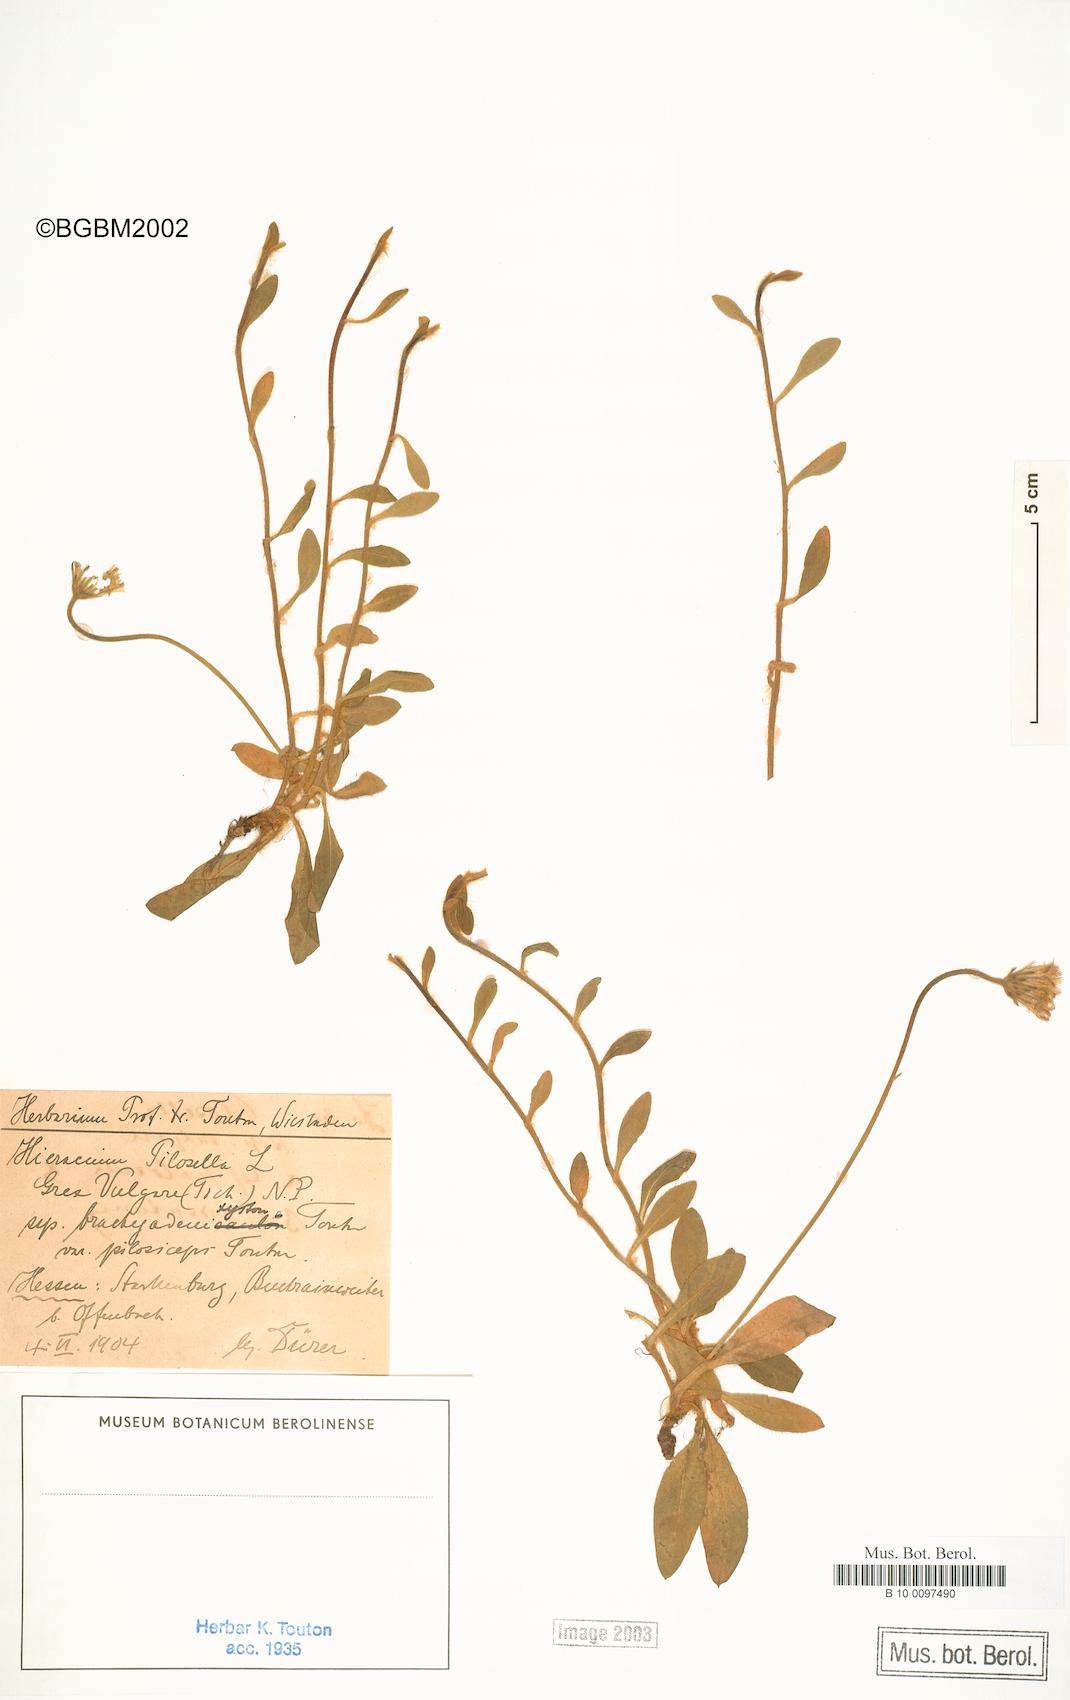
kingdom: Plantae
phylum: Tracheophyta
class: Magnoliopsida
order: Asterales
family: Asteraceae
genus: Pilosella
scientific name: Pilosella officinarum
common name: Mouse-ear hawkweed
